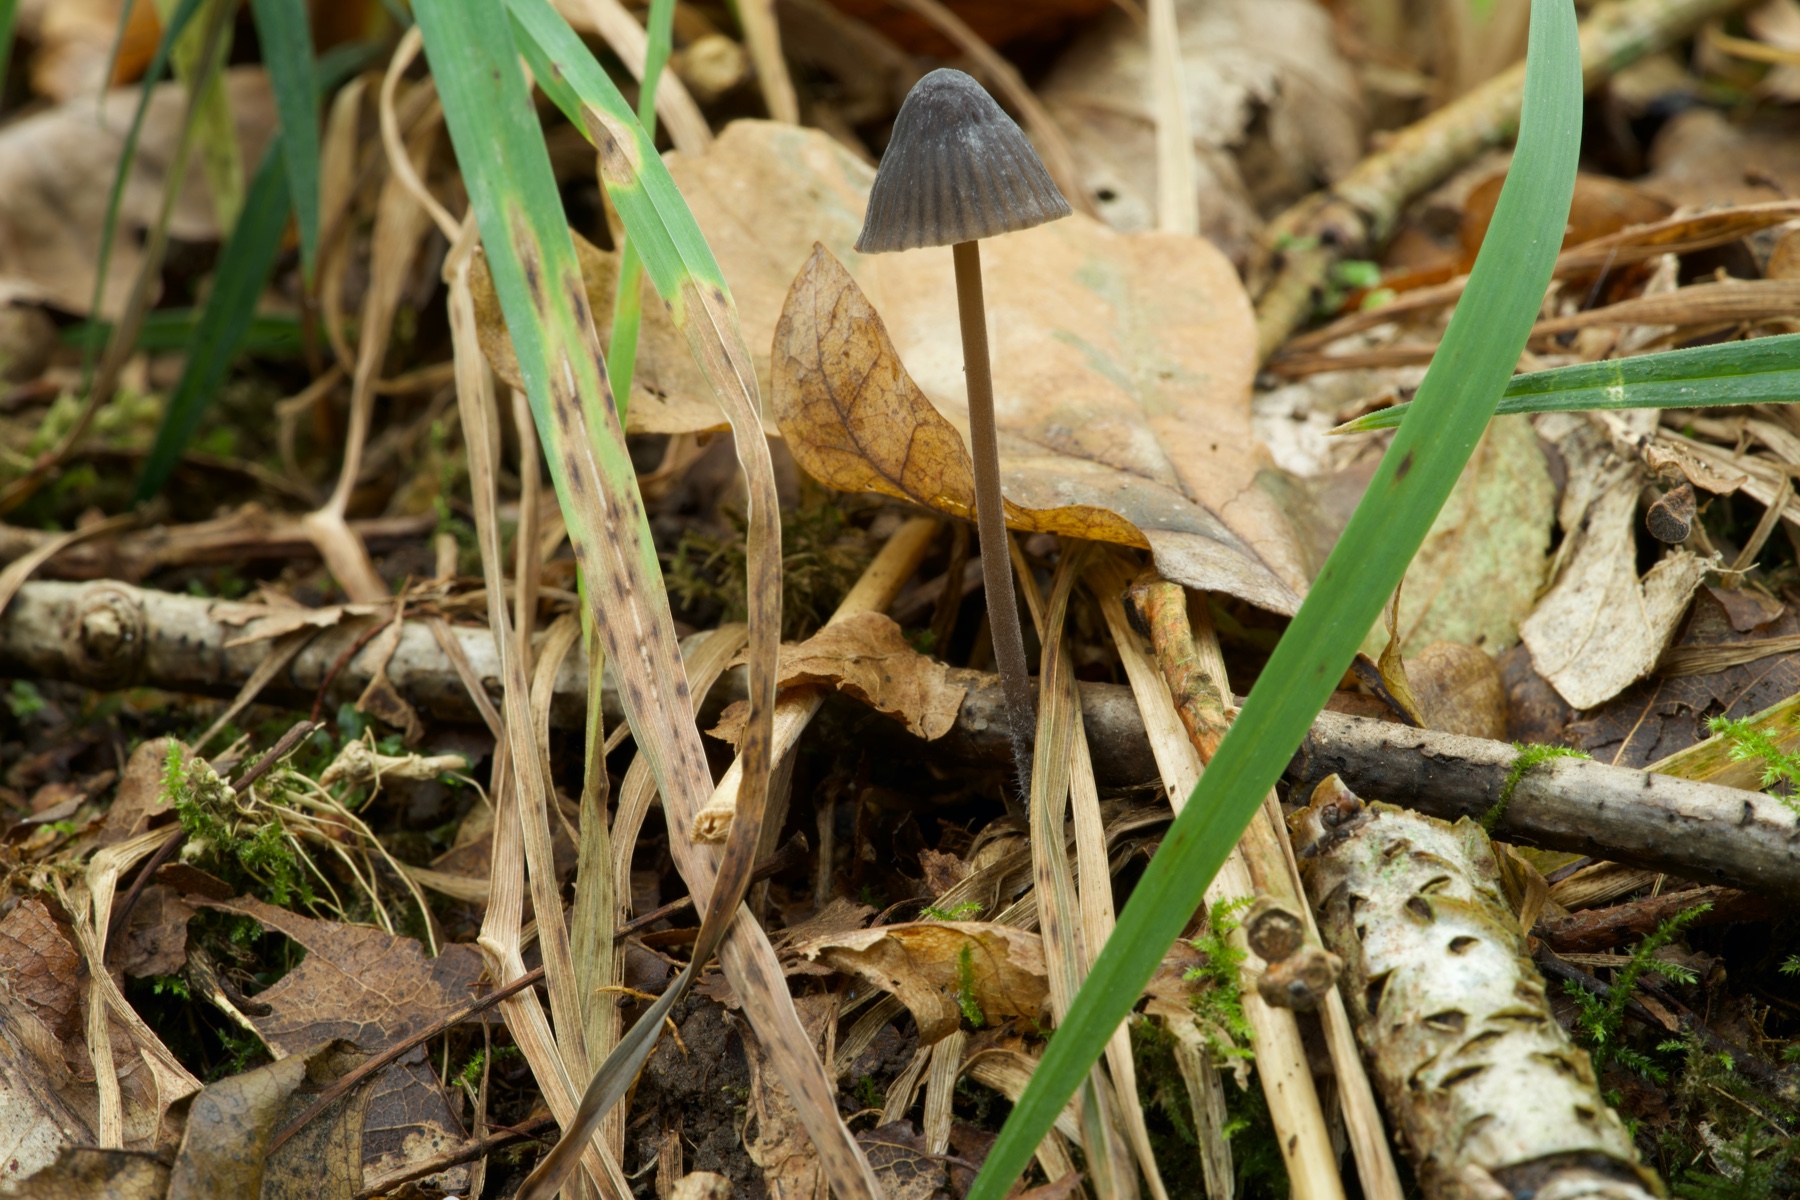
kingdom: Fungi
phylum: Basidiomycota
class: Agaricomycetes
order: Agaricales
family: Mycenaceae
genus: Mycena
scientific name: Mycena
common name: huesvamp
